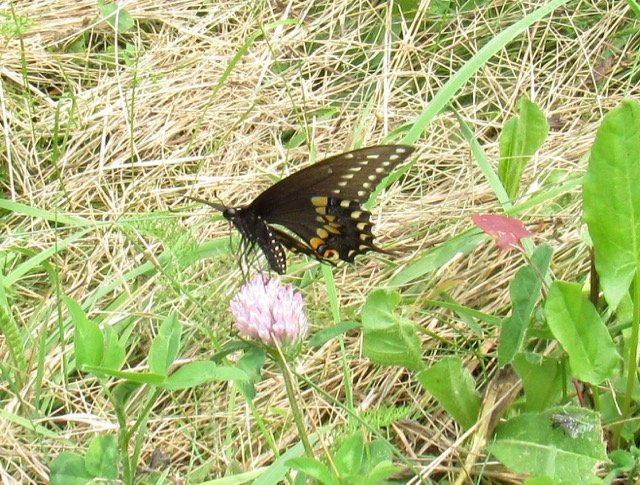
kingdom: Animalia
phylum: Arthropoda
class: Insecta
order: Lepidoptera
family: Papilionidae
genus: Papilio
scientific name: Papilio polyxenes
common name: Black Swallowtail
